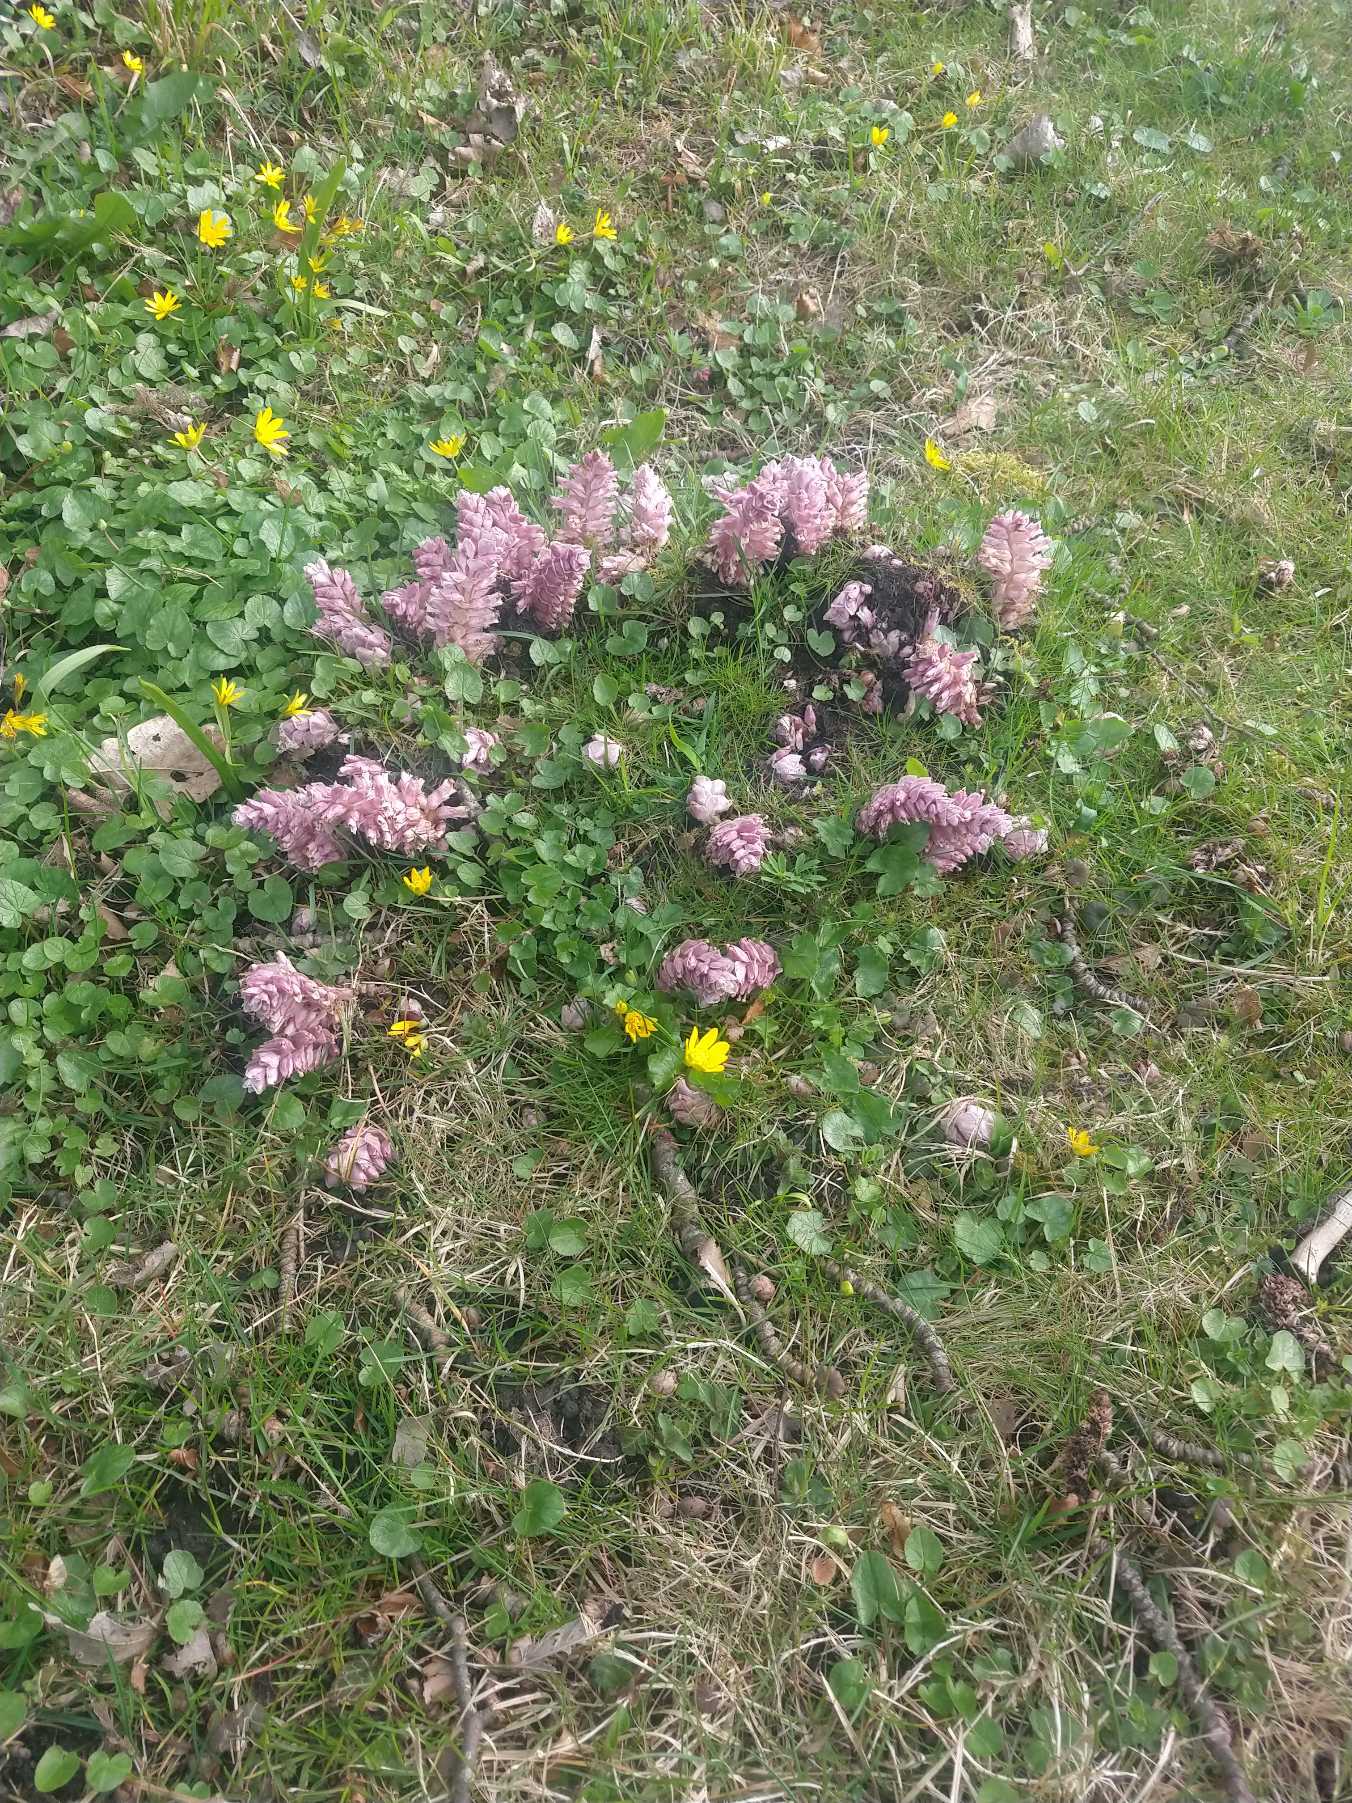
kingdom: Plantae
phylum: Tracheophyta
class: Magnoliopsida
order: Lamiales
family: Orobanchaceae
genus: Lathraea
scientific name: Lathraea squamaria
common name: Skælrod
